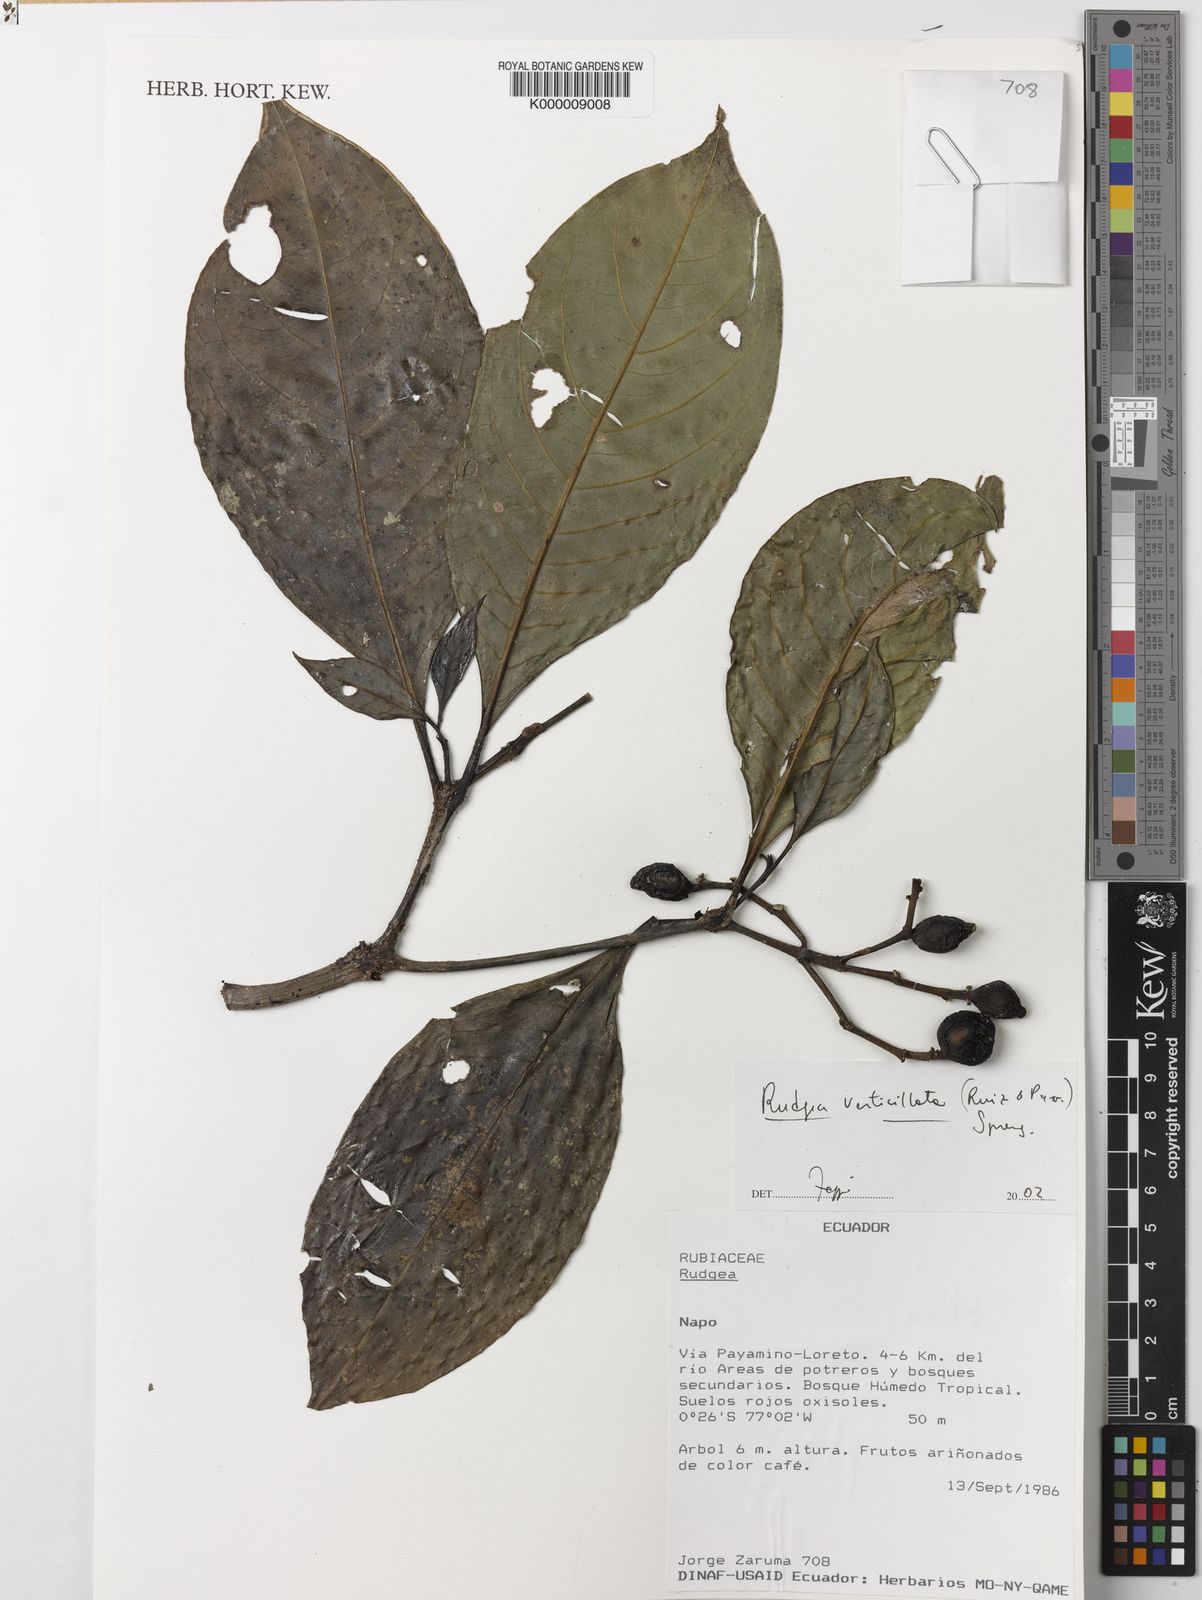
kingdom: Plantae
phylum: Tracheophyta
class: Magnoliopsida
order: Gentianales
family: Rubiaceae
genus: Rudgea
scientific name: Rudgea verticillata
